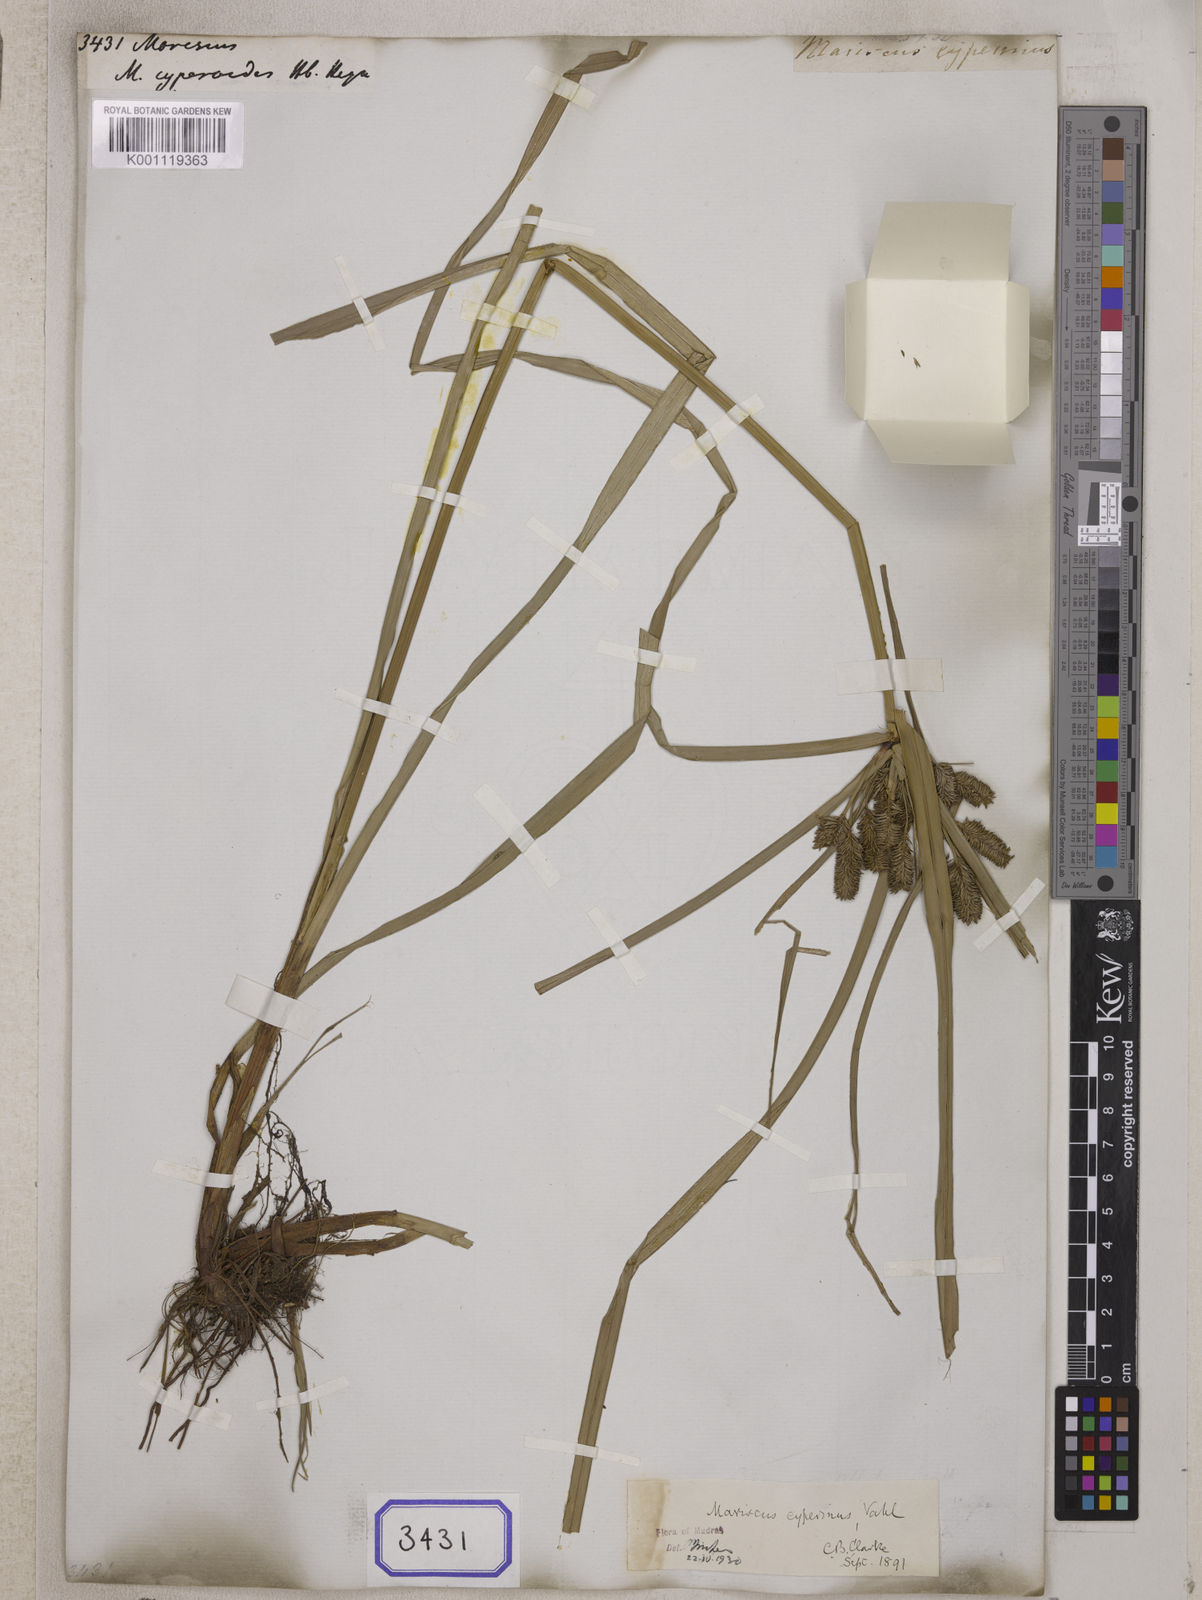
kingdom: Plantae
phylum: Tracheophyta
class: Liliopsida
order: Poales
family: Cyperaceae
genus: Mariscus
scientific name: Mariscus
